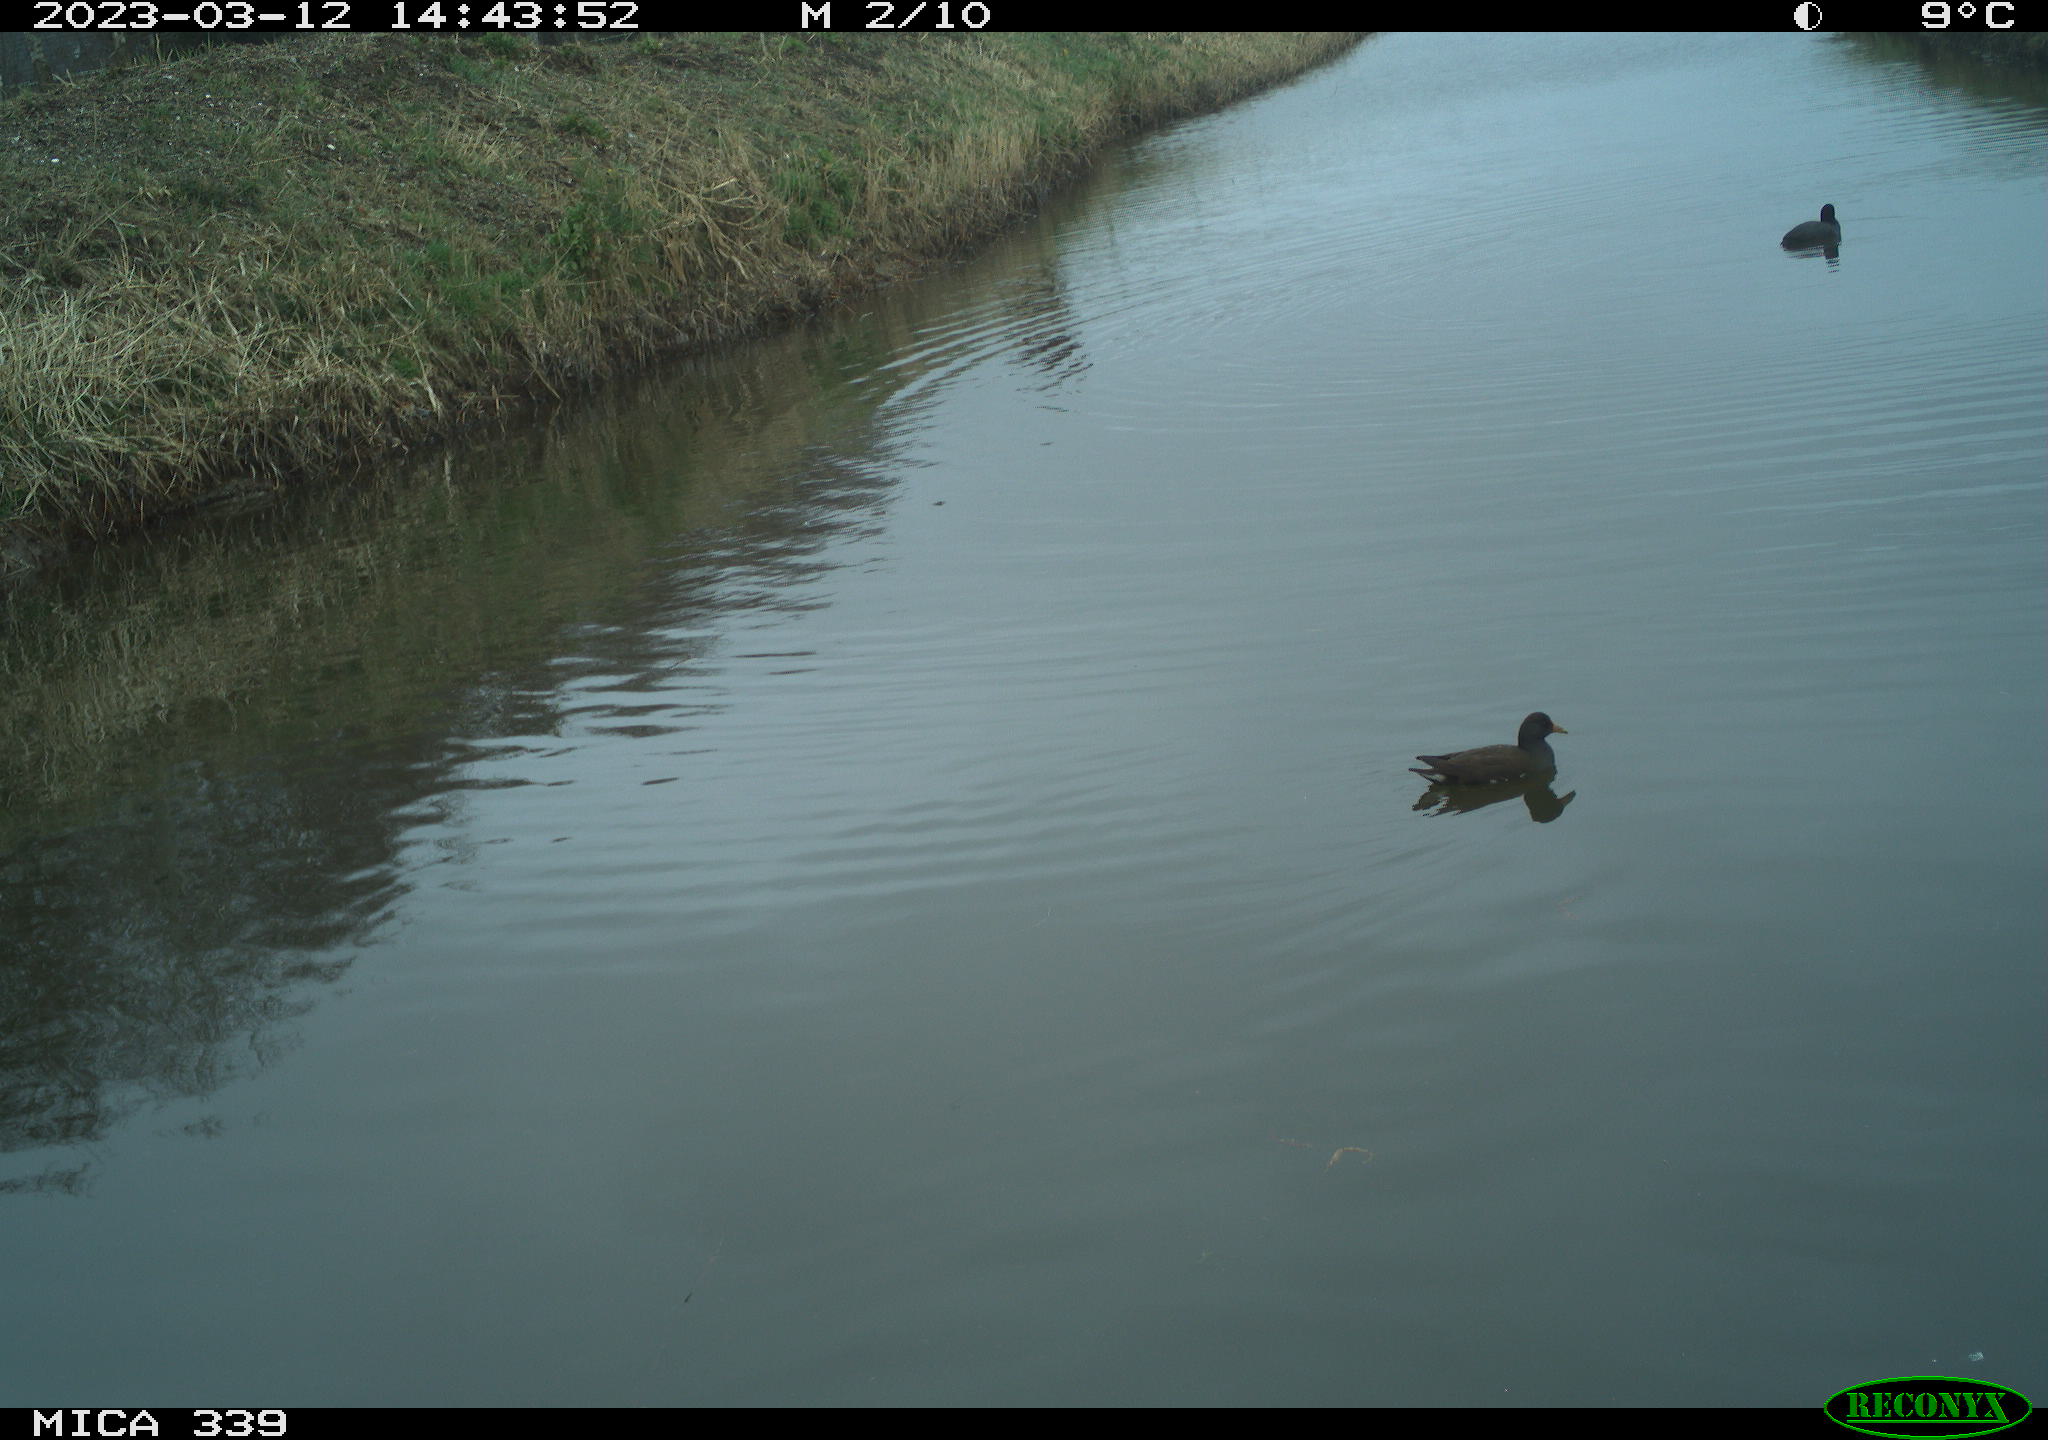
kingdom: Animalia
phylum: Chordata
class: Aves
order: Gruiformes
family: Rallidae
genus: Fulica
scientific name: Fulica atra
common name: Eurasian coot
